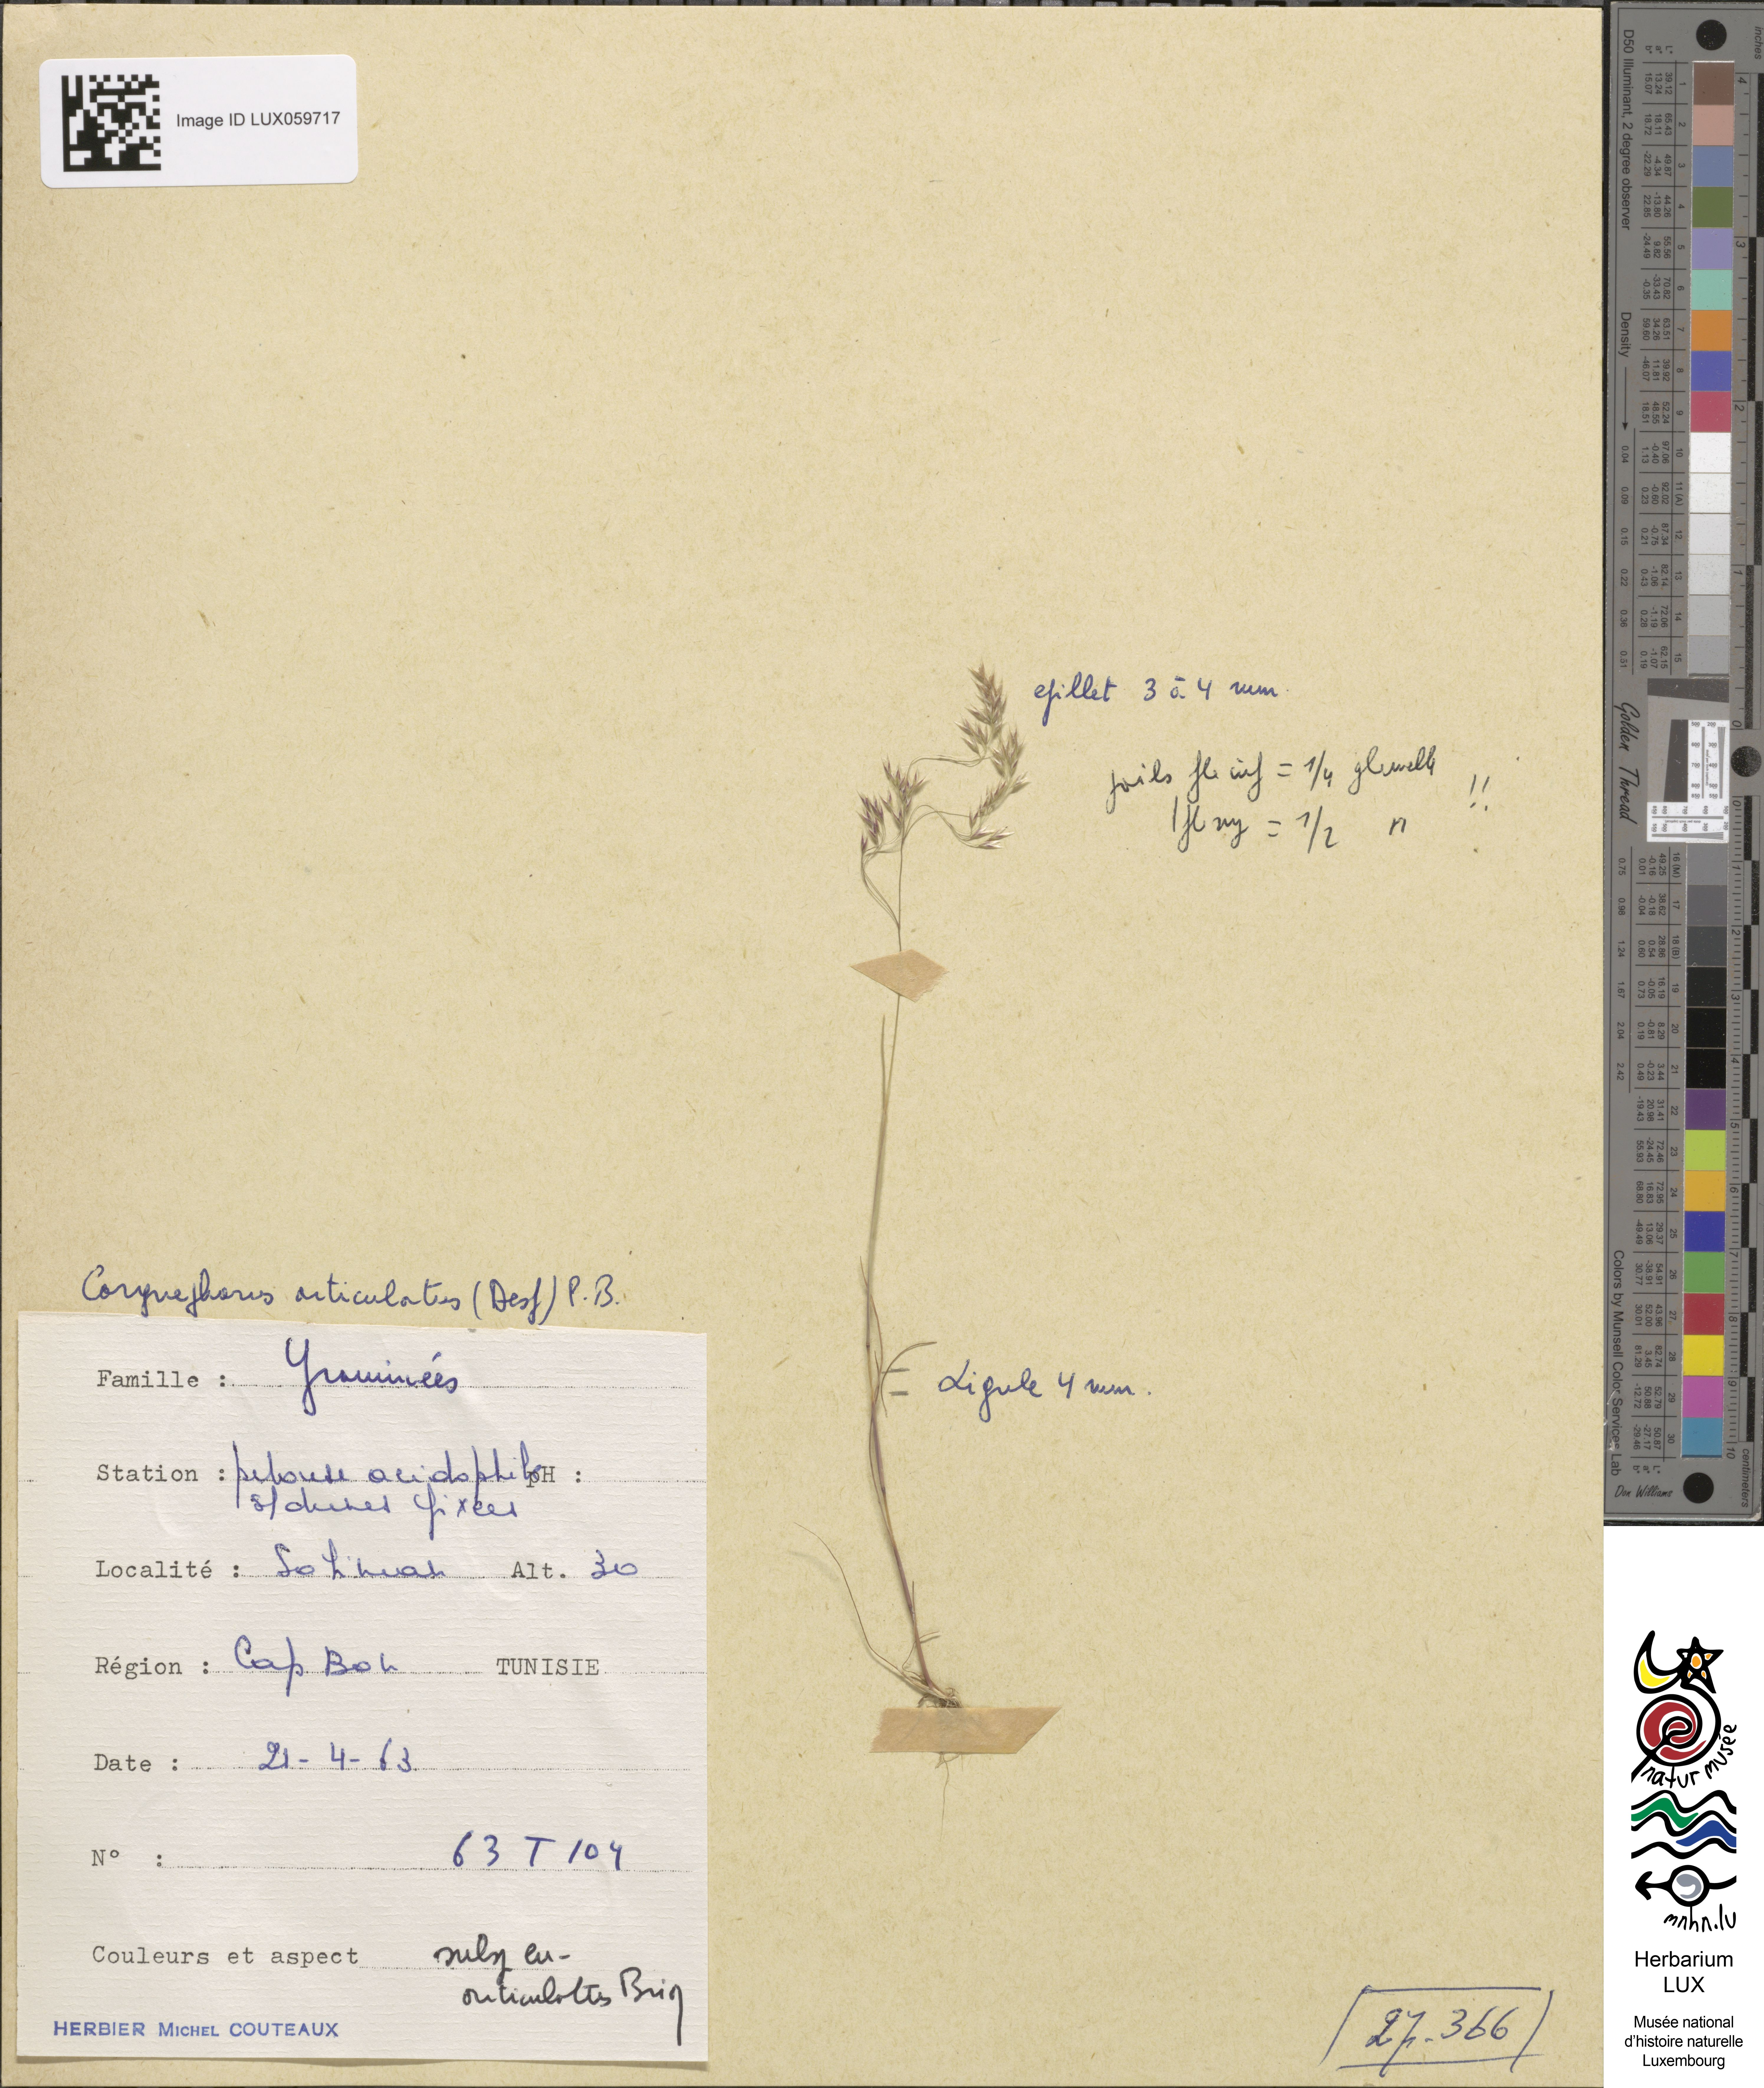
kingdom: Plantae
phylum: Tracheophyta
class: Liliopsida
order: Poales
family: Poaceae
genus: Corynephorus
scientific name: Corynephorus articulatus
